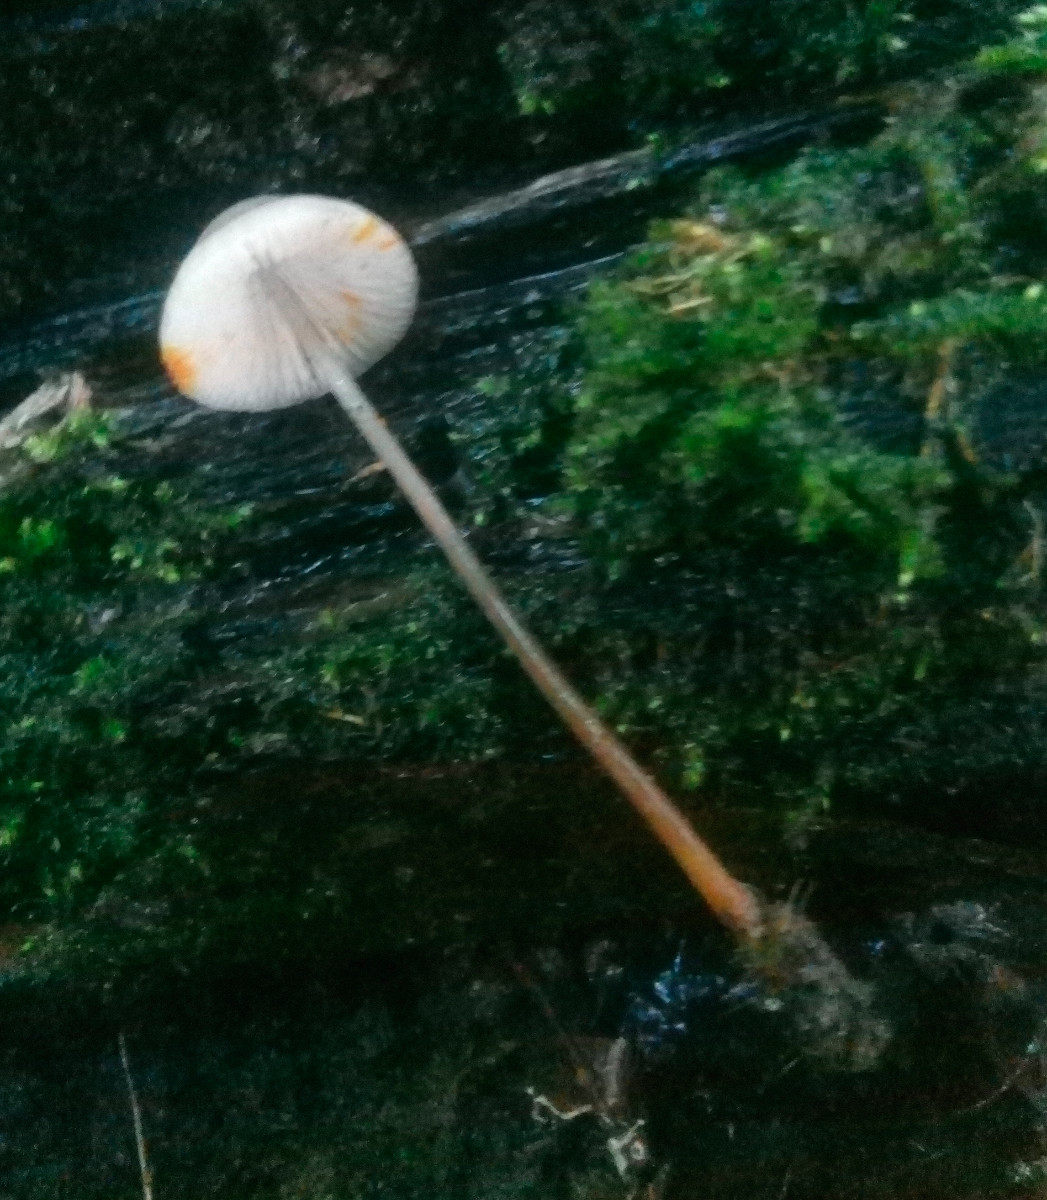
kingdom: Fungi
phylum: Basidiomycota
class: Agaricomycetes
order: Agaricales
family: Mycenaceae
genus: Mycena
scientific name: Mycena crocata
